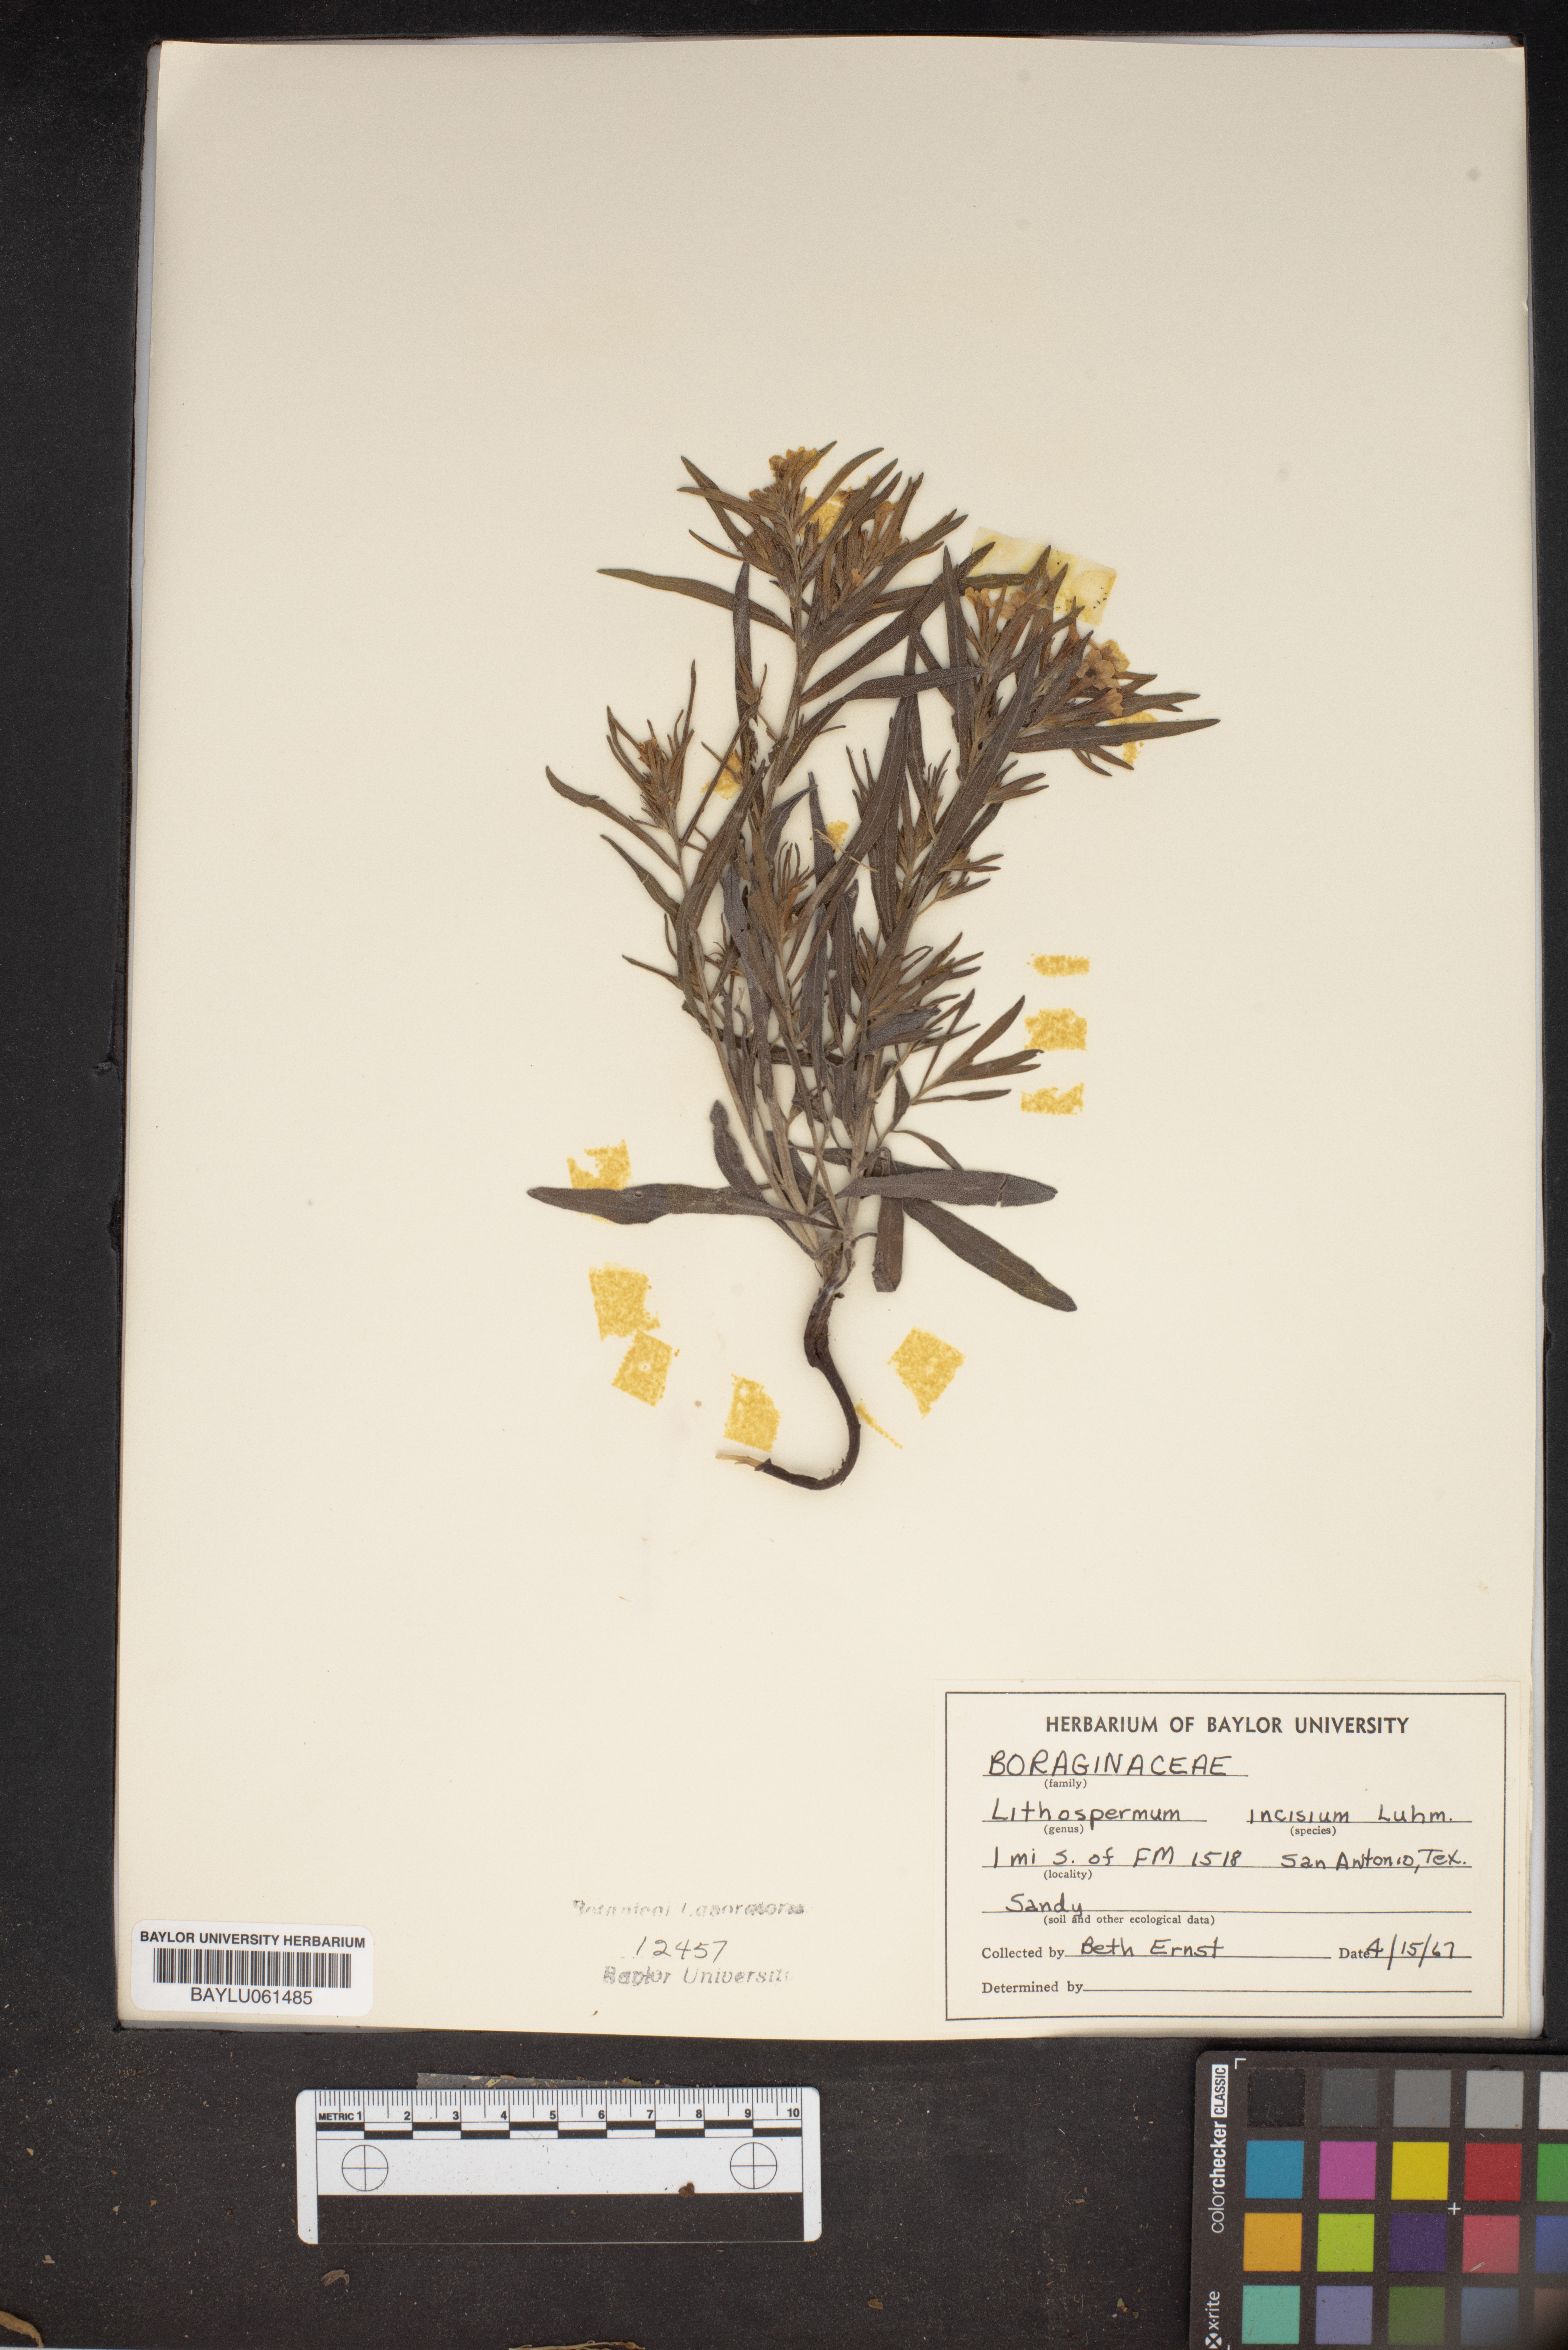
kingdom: Plantae
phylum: Tracheophyta
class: Magnoliopsida
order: Boraginales
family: Boraginaceae
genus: Lithospermum
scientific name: Lithospermum incisum
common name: Fringed gromwell
